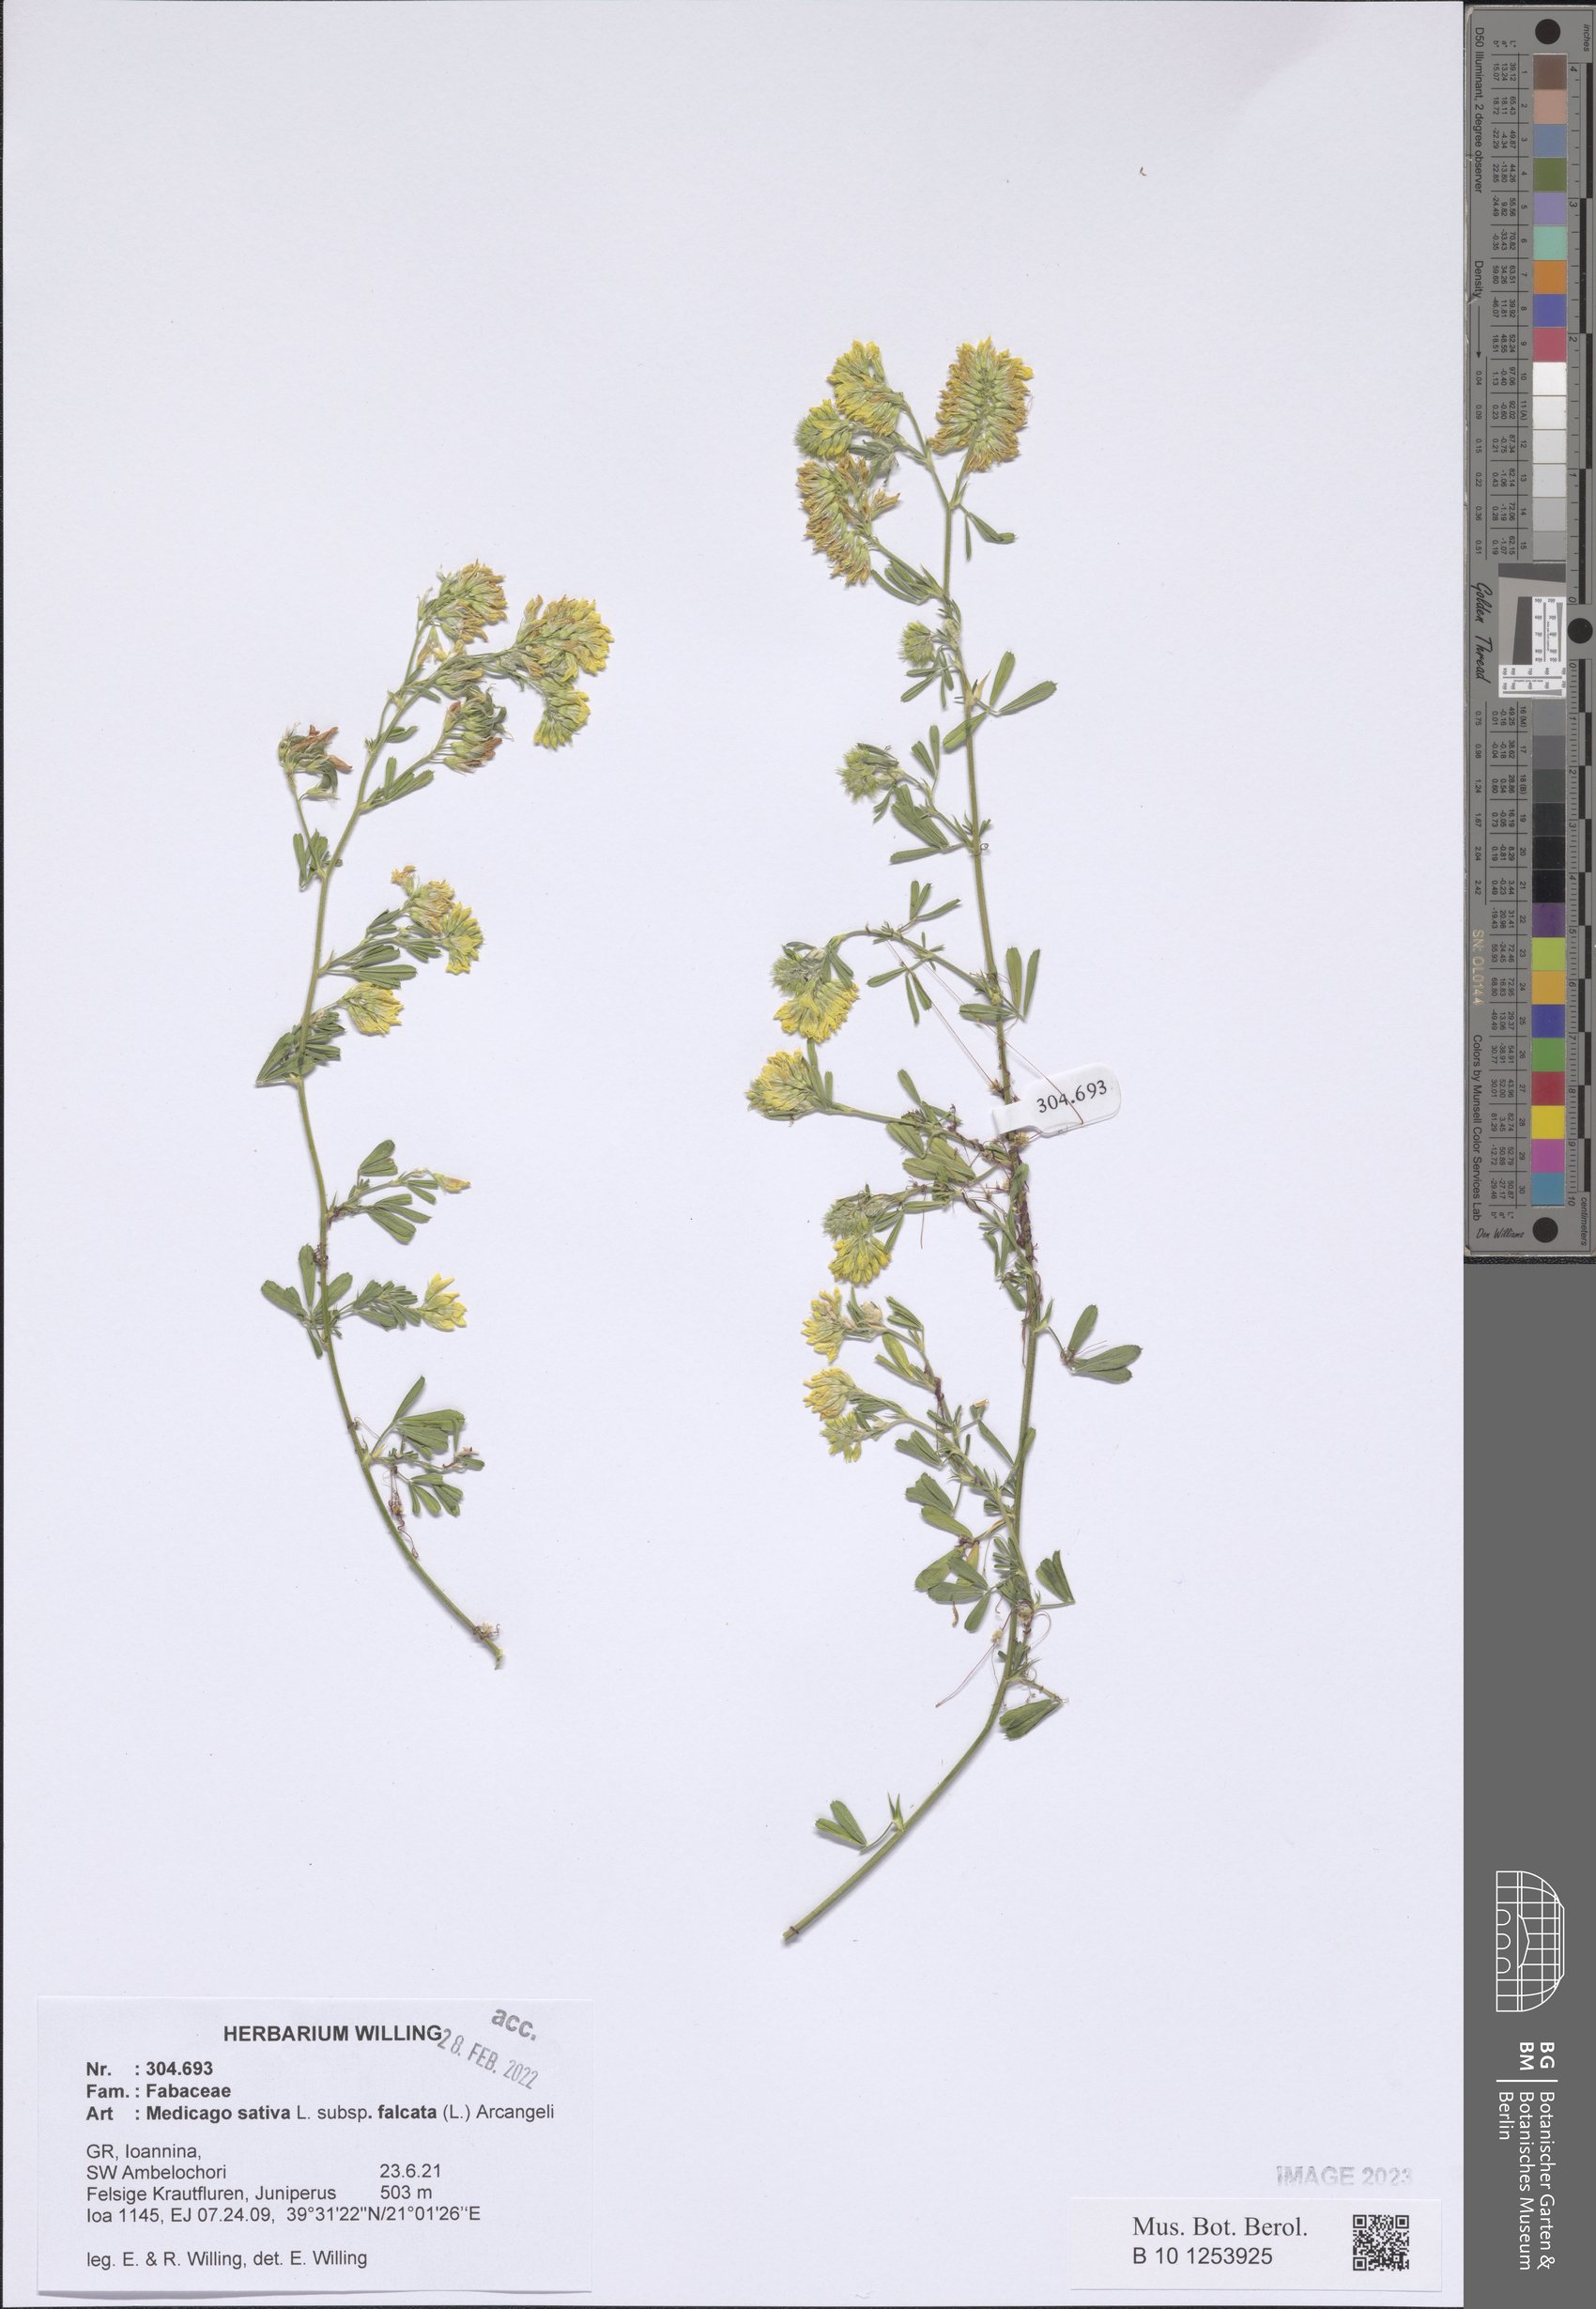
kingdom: Plantae
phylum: Tracheophyta
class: Magnoliopsida
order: Fabales
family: Fabaceae
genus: Medicago
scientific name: Medicago falcata
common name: Sickle medick
